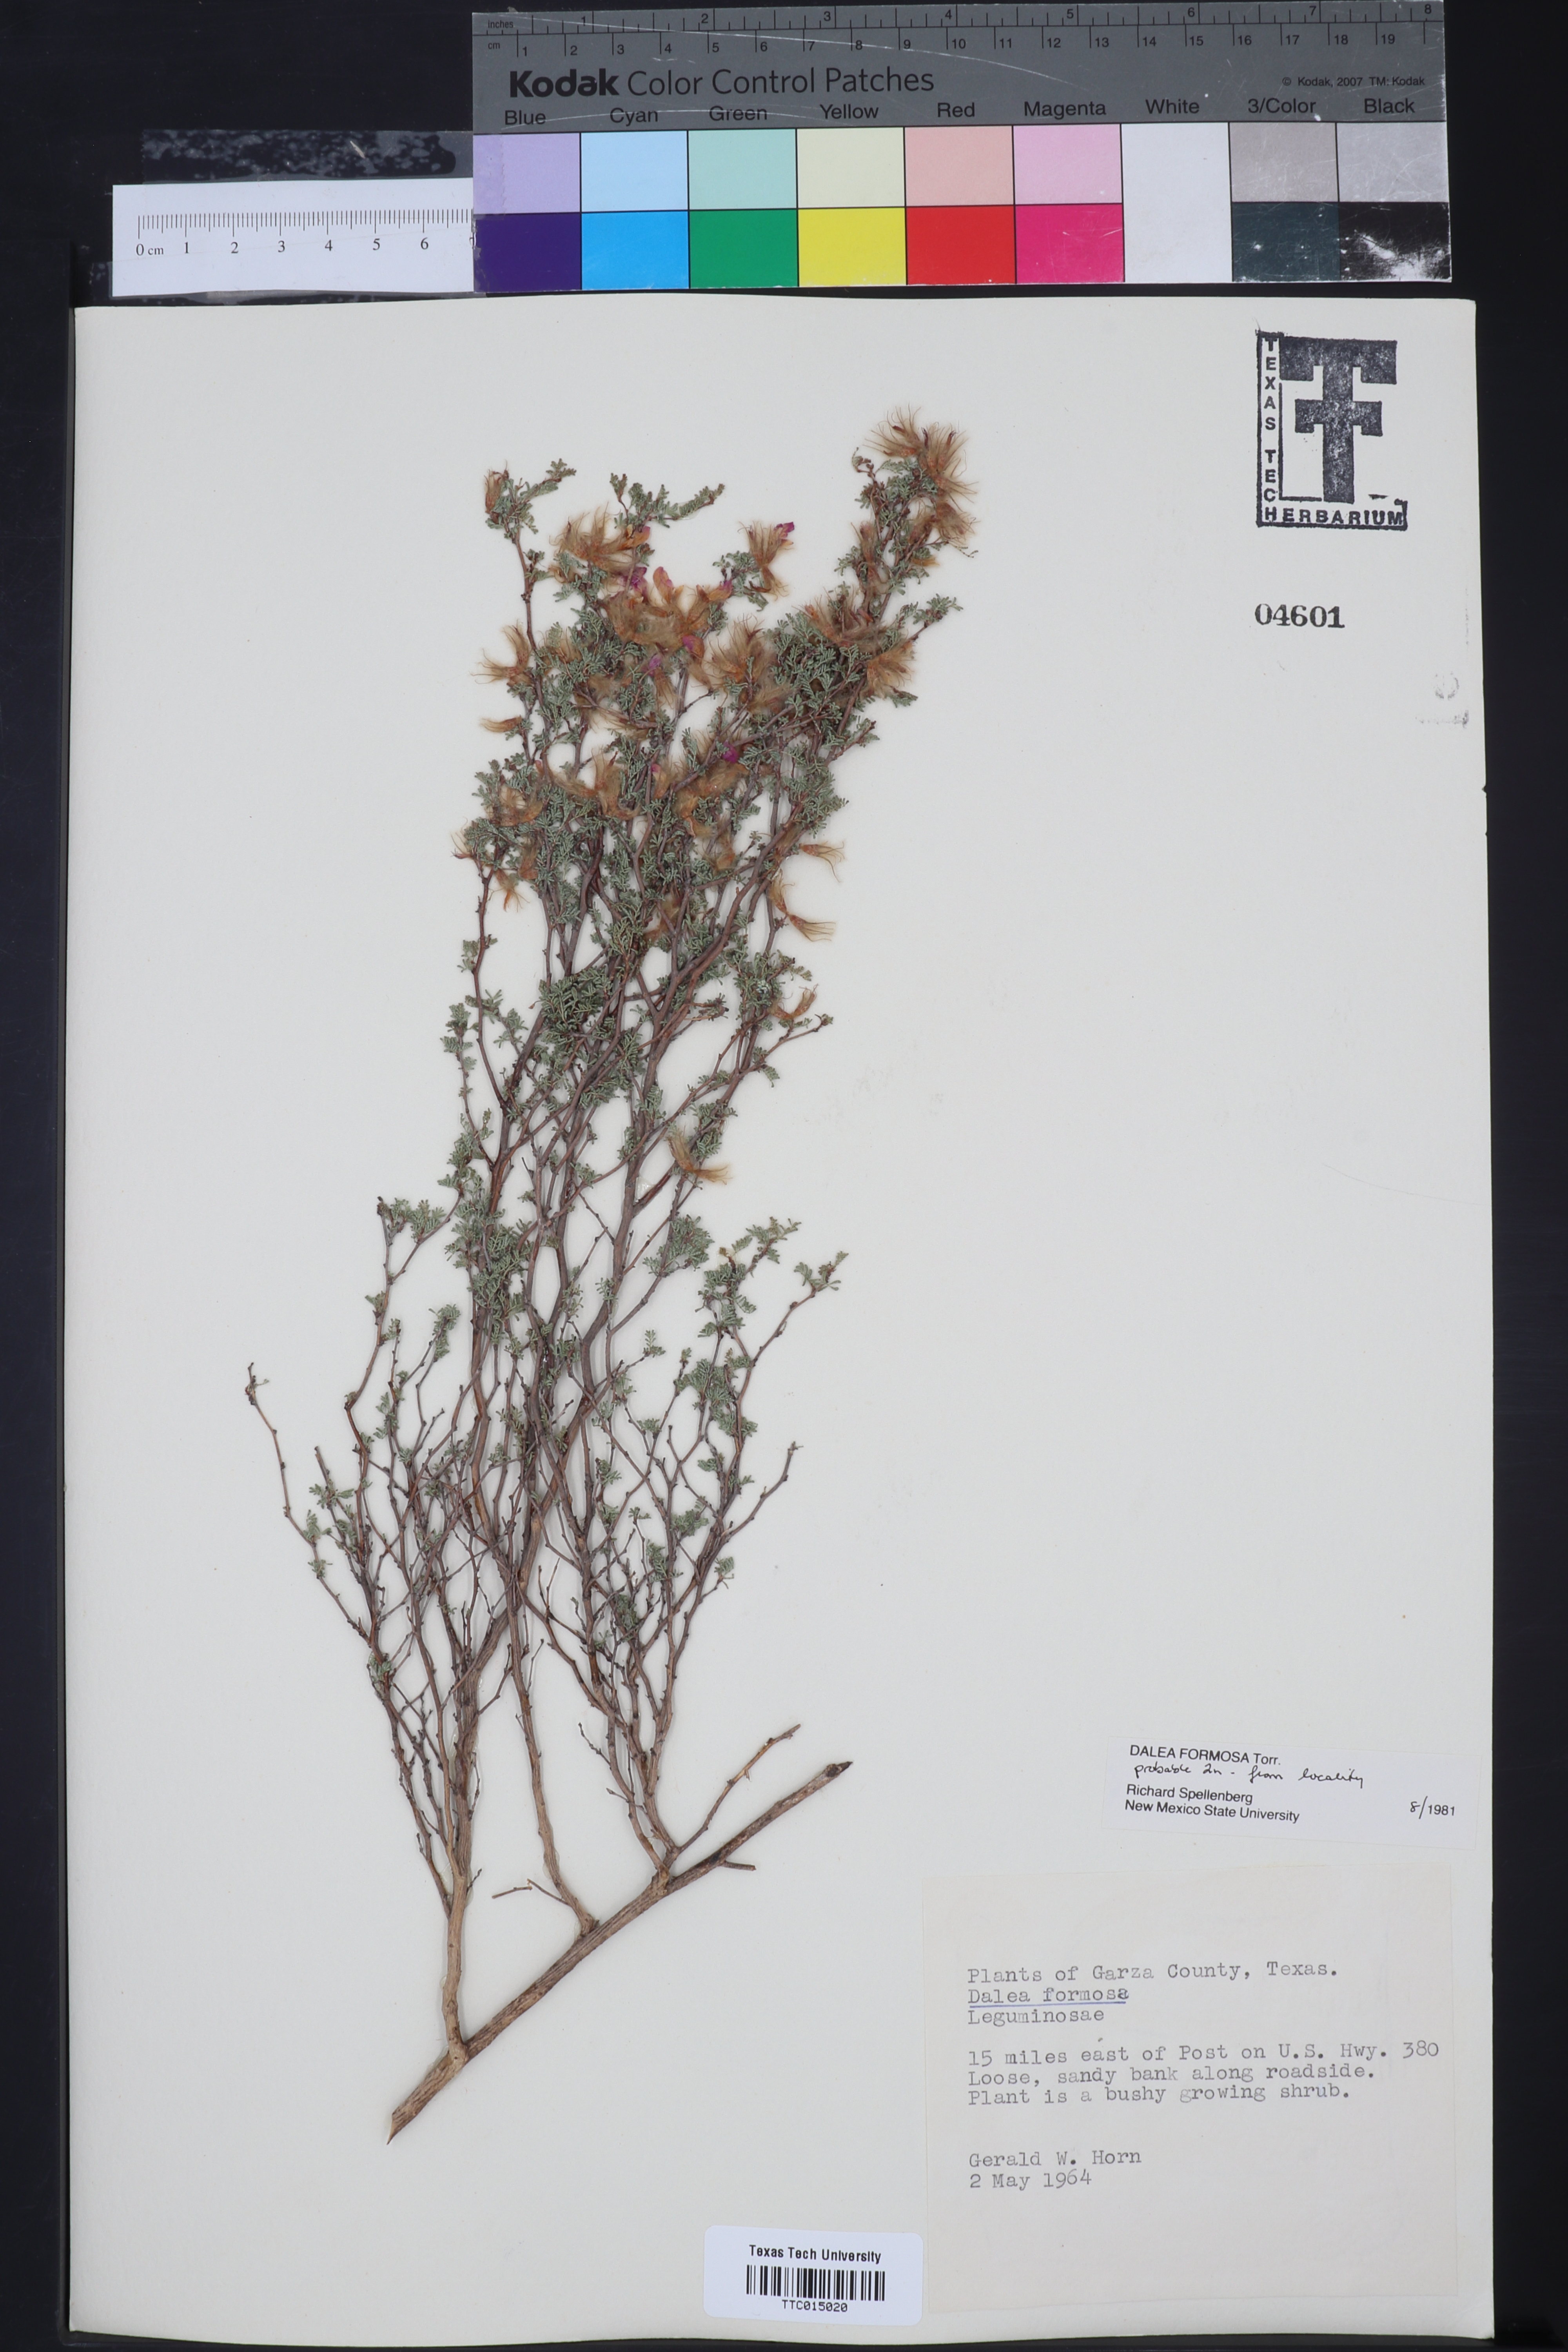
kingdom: Plantae
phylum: Tracheophyta
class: Magnoliopsida
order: Fabales
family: Fabaceae
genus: Dalea
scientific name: Dalea formosa
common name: Feather-plume dalea
